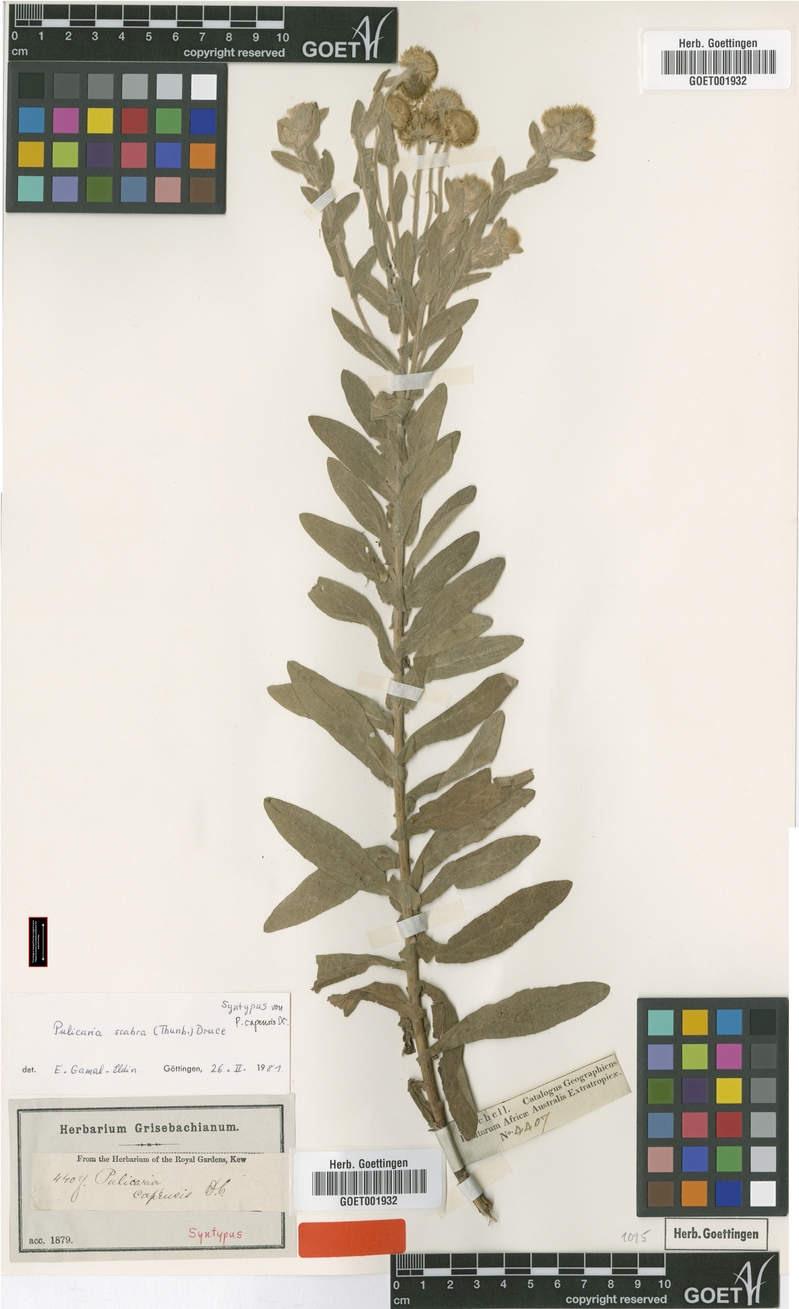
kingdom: Plantae
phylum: Tracheophyta
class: Magnoliopsida
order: Asterales
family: Asteraceae
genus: Pulicaria
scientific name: Pulicaria scabra
